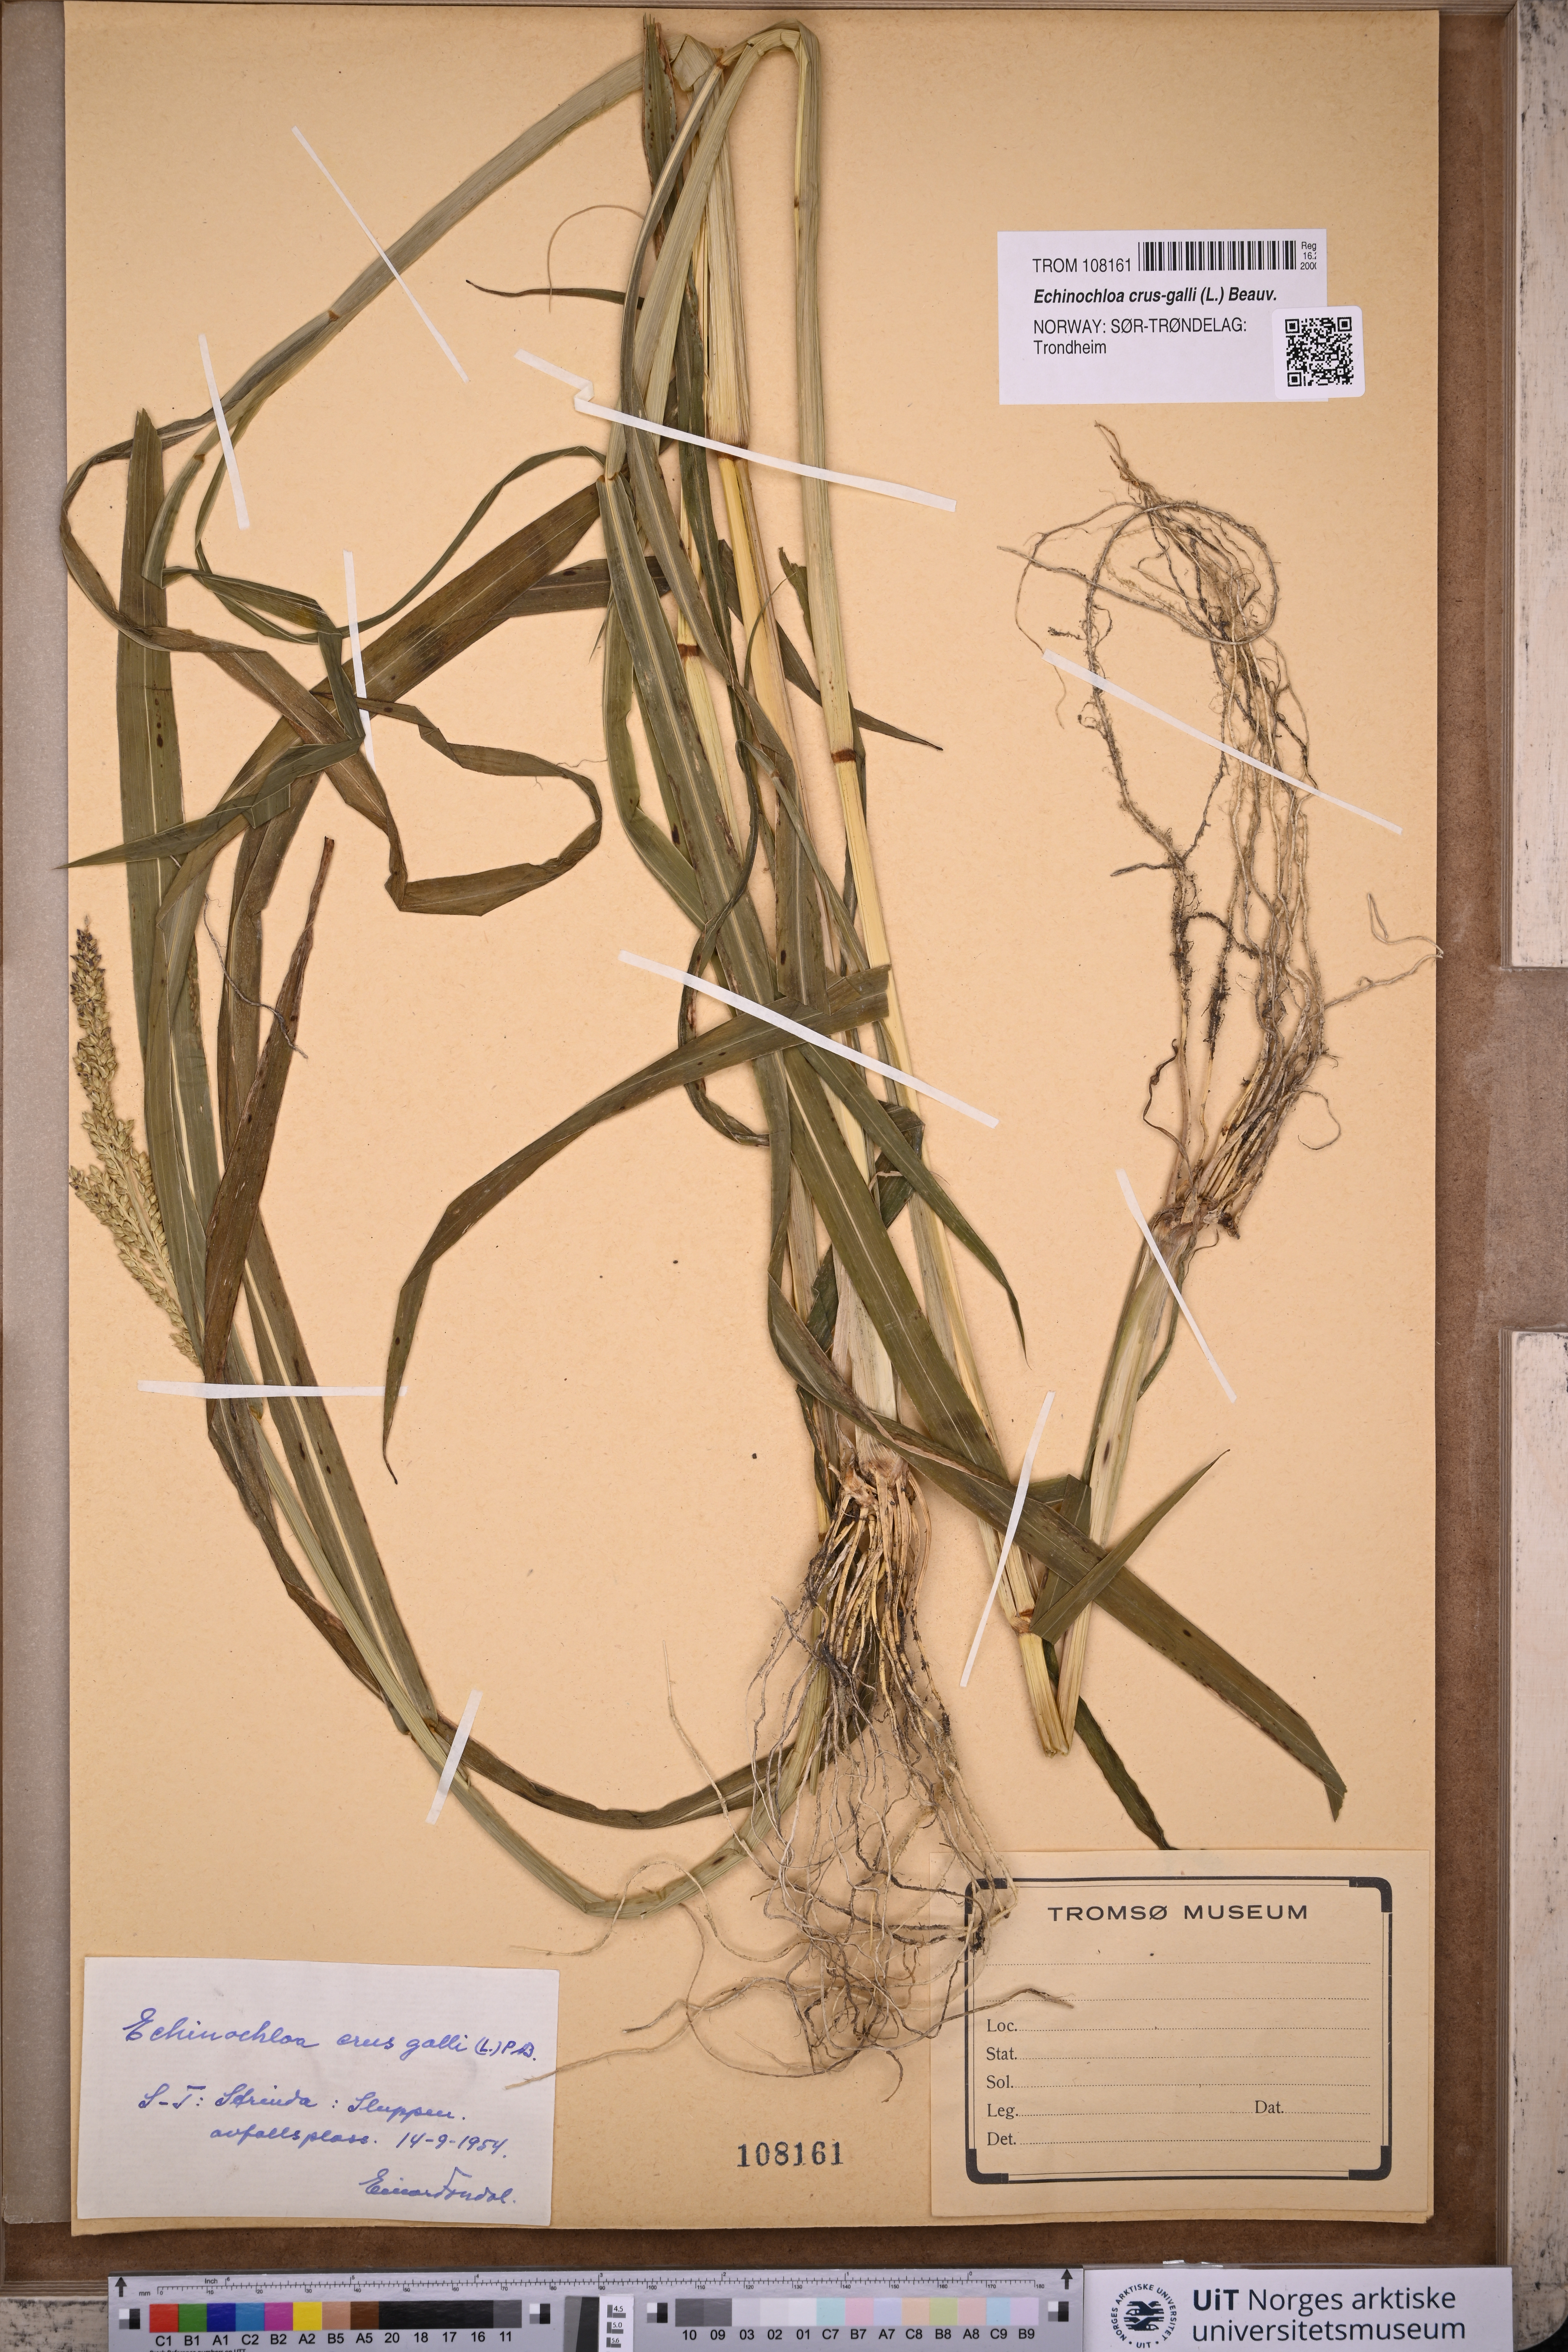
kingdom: Plantae
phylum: Tracheophyta
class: Liliopsida
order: Poales
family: Poaceae
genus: Echinochloa
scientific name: Echinochloa crus-galli
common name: Cockspur
